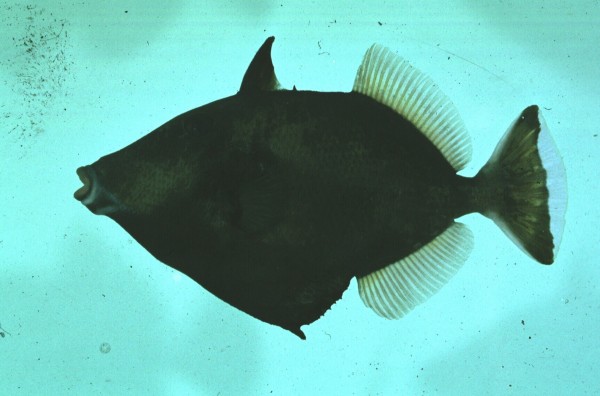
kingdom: Animalia
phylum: Chordata
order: Tetraodontiformes
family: Balistidae
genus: Sufflamen
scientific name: Sufflamen chrysopterum
